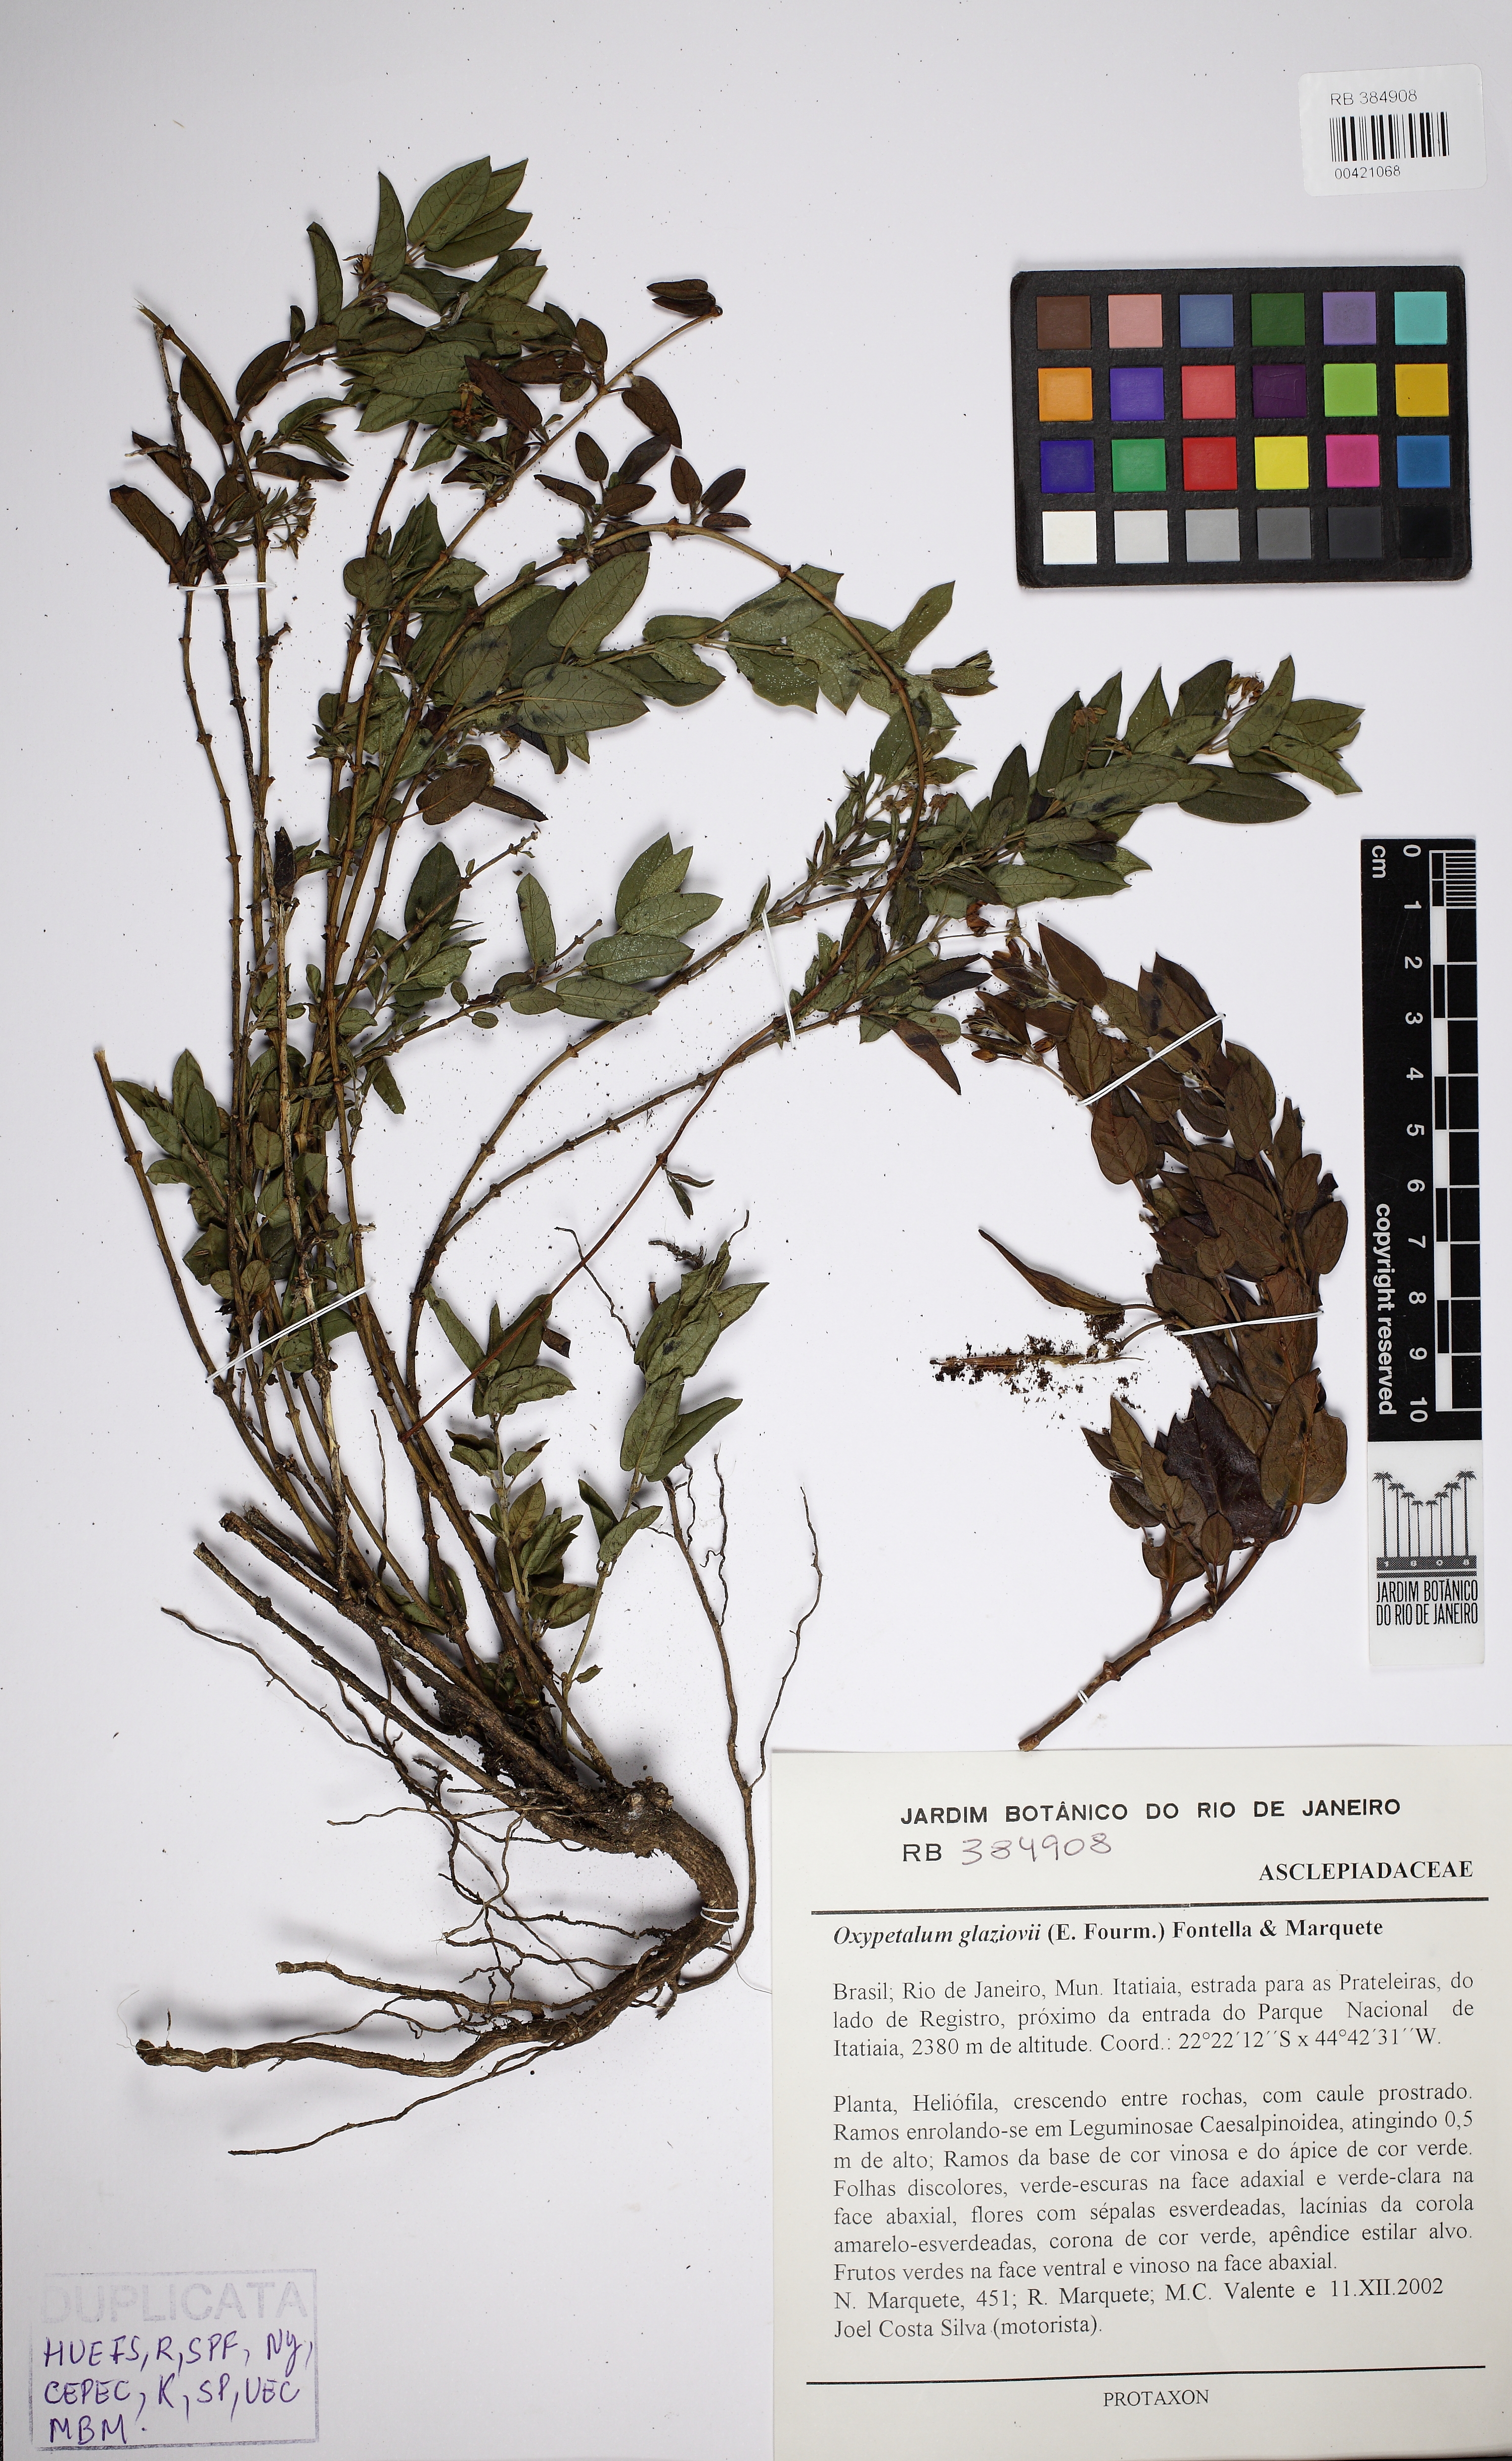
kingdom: Plantae
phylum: Tracheophyta
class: Magnoliopsida
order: Gentianales
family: Apocynaceae
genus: Oxypetalum
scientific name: Oxypetalum glaziovii
